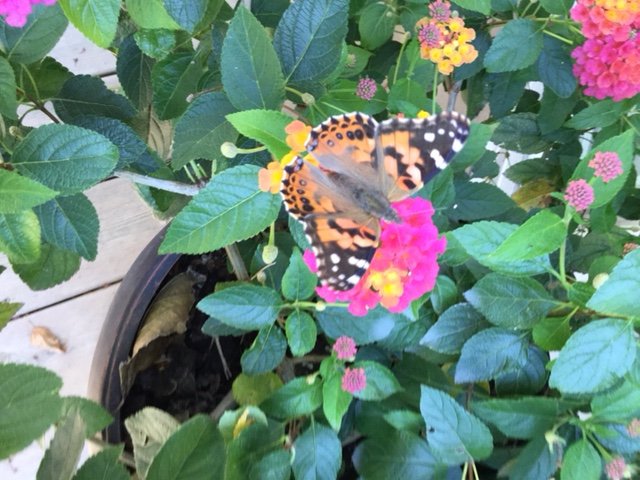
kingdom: Animalia
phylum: Arthropoda
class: Insecta
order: Lepidoptera
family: Nymphalidae
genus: Vanessa
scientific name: Vanessa cardui
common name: Painted Lady
